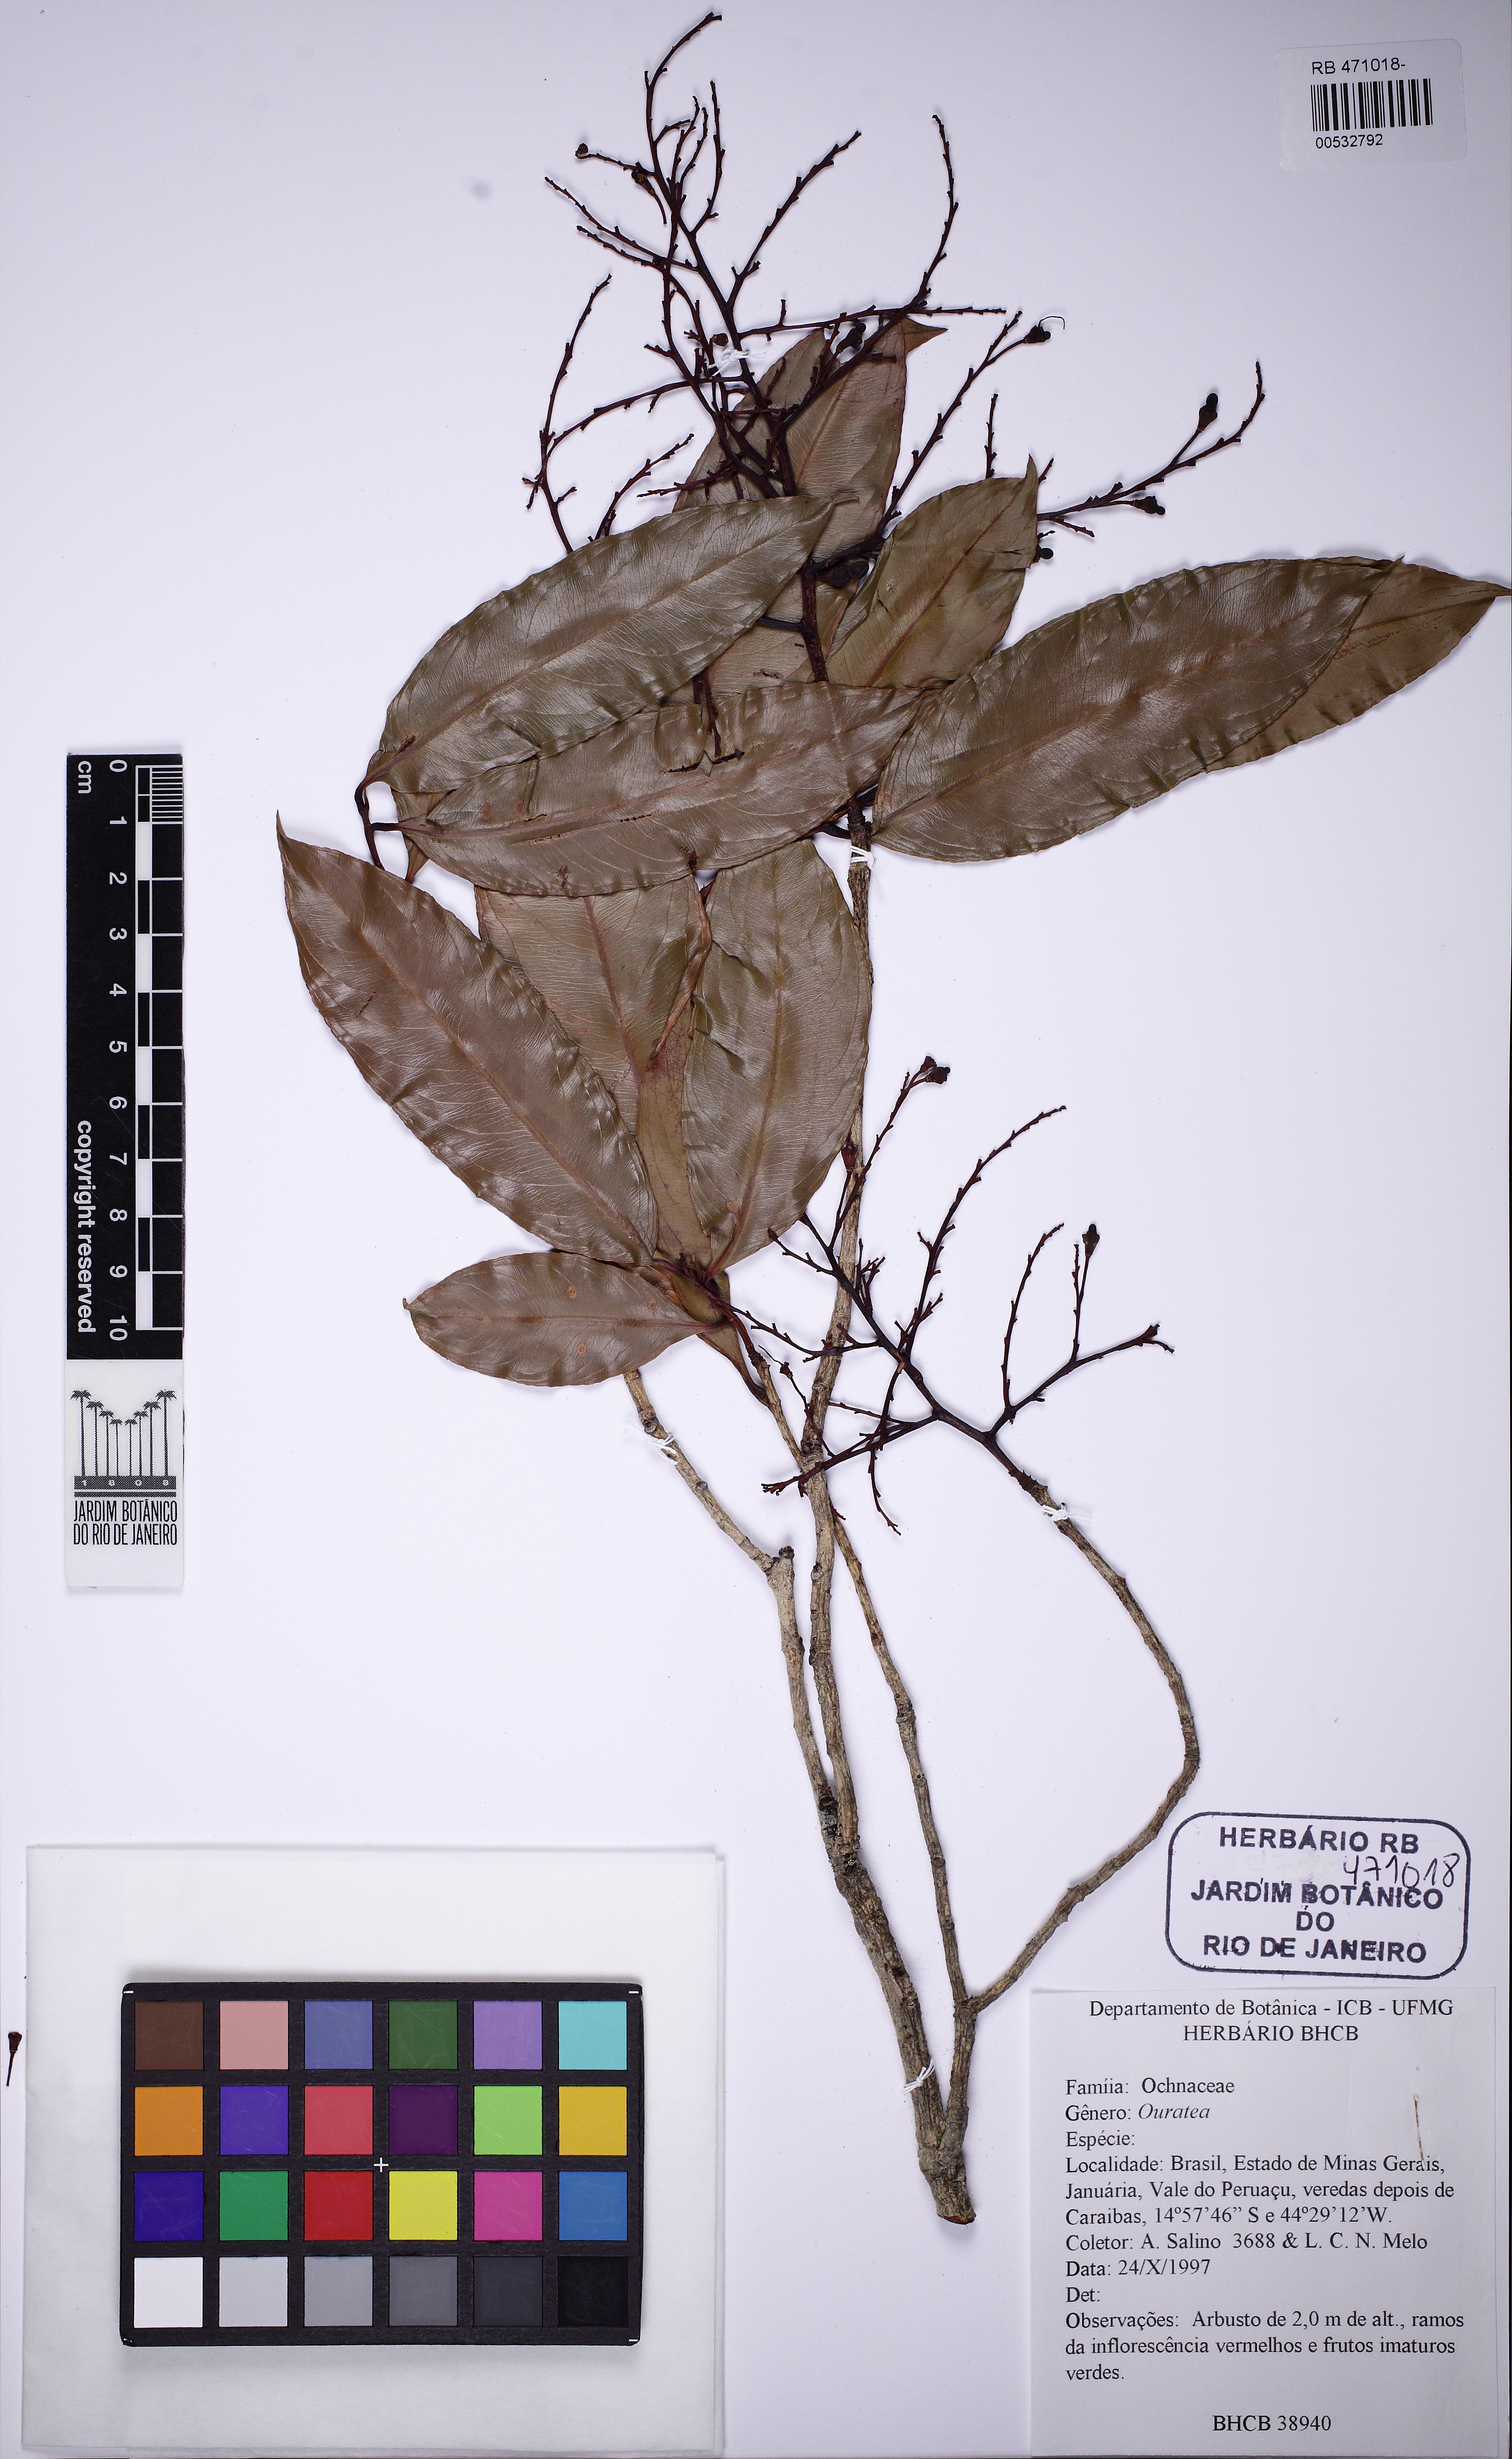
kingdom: Plantae
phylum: Tracheophyta
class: Magnoliopsida
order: Malpighiales
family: Ochnaceae
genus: Ouratea
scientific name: Ouratea hexasperma
